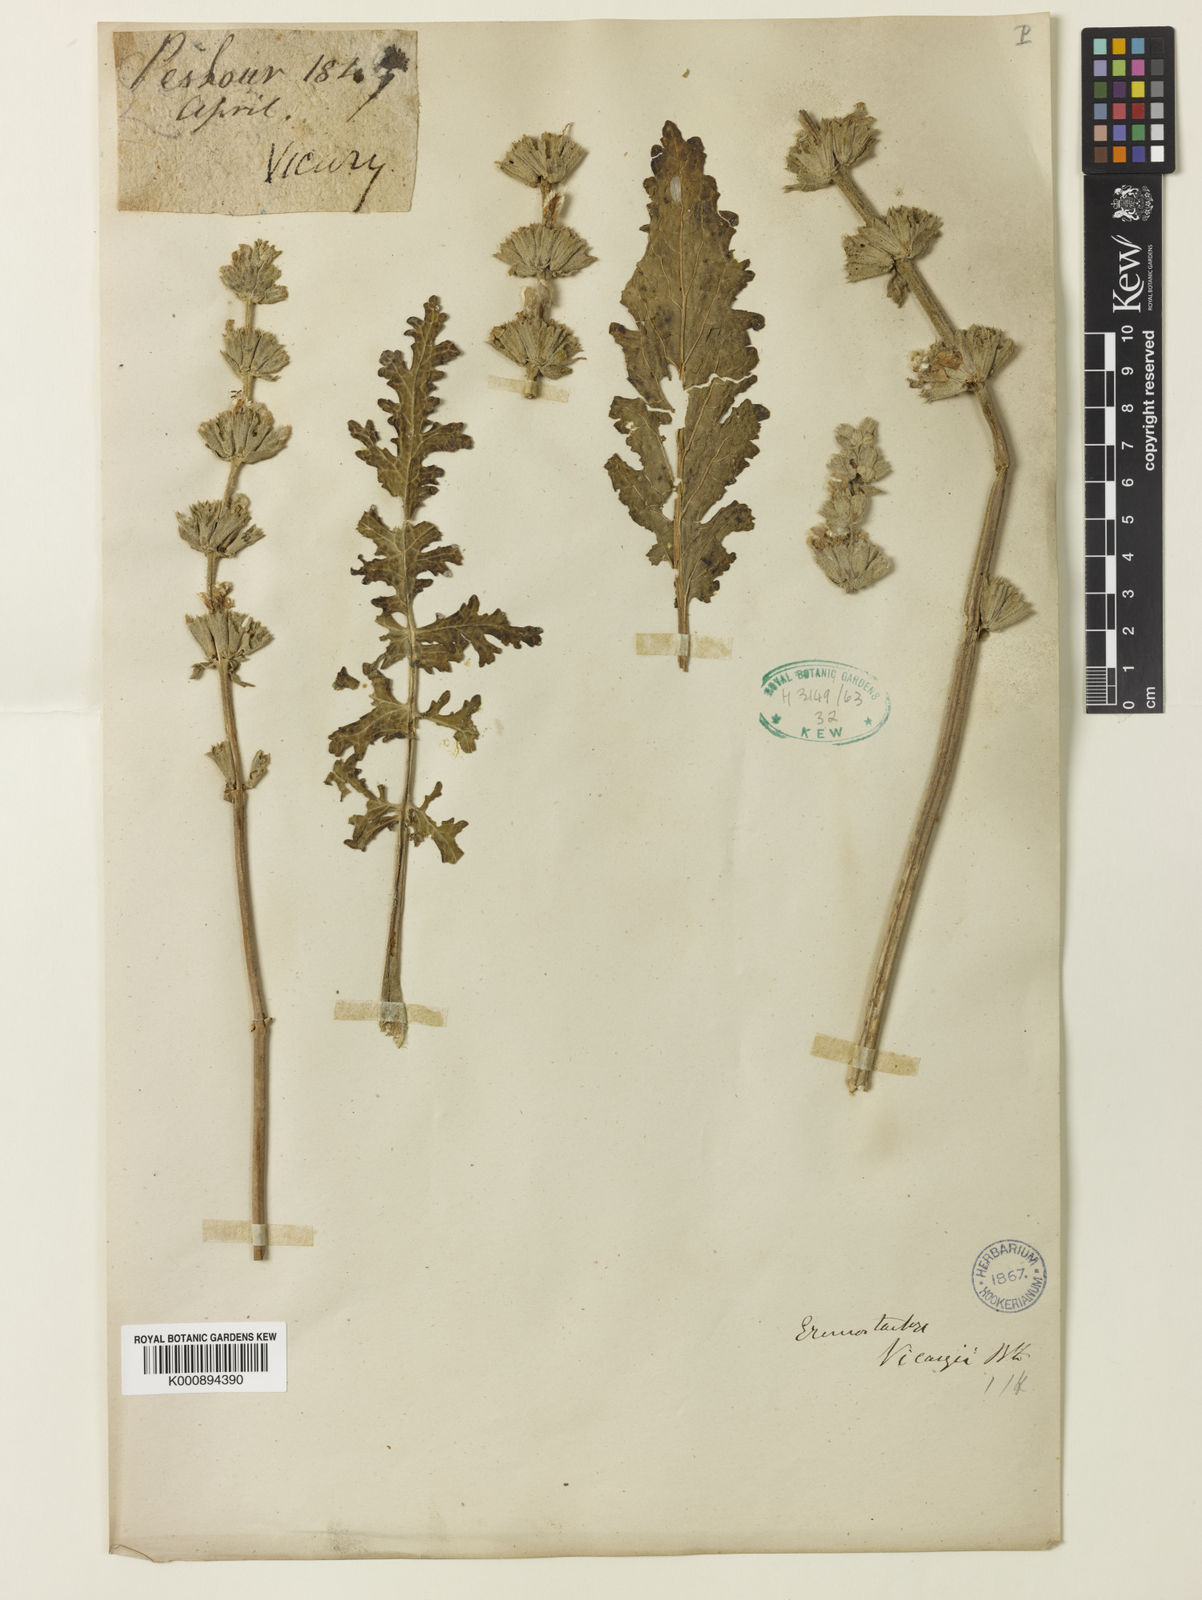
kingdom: Plantae
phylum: Tracheophyta
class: Magnoliopsida
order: Lamiales
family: Lamiaceae
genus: Phlomoides
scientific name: Phlomoides
